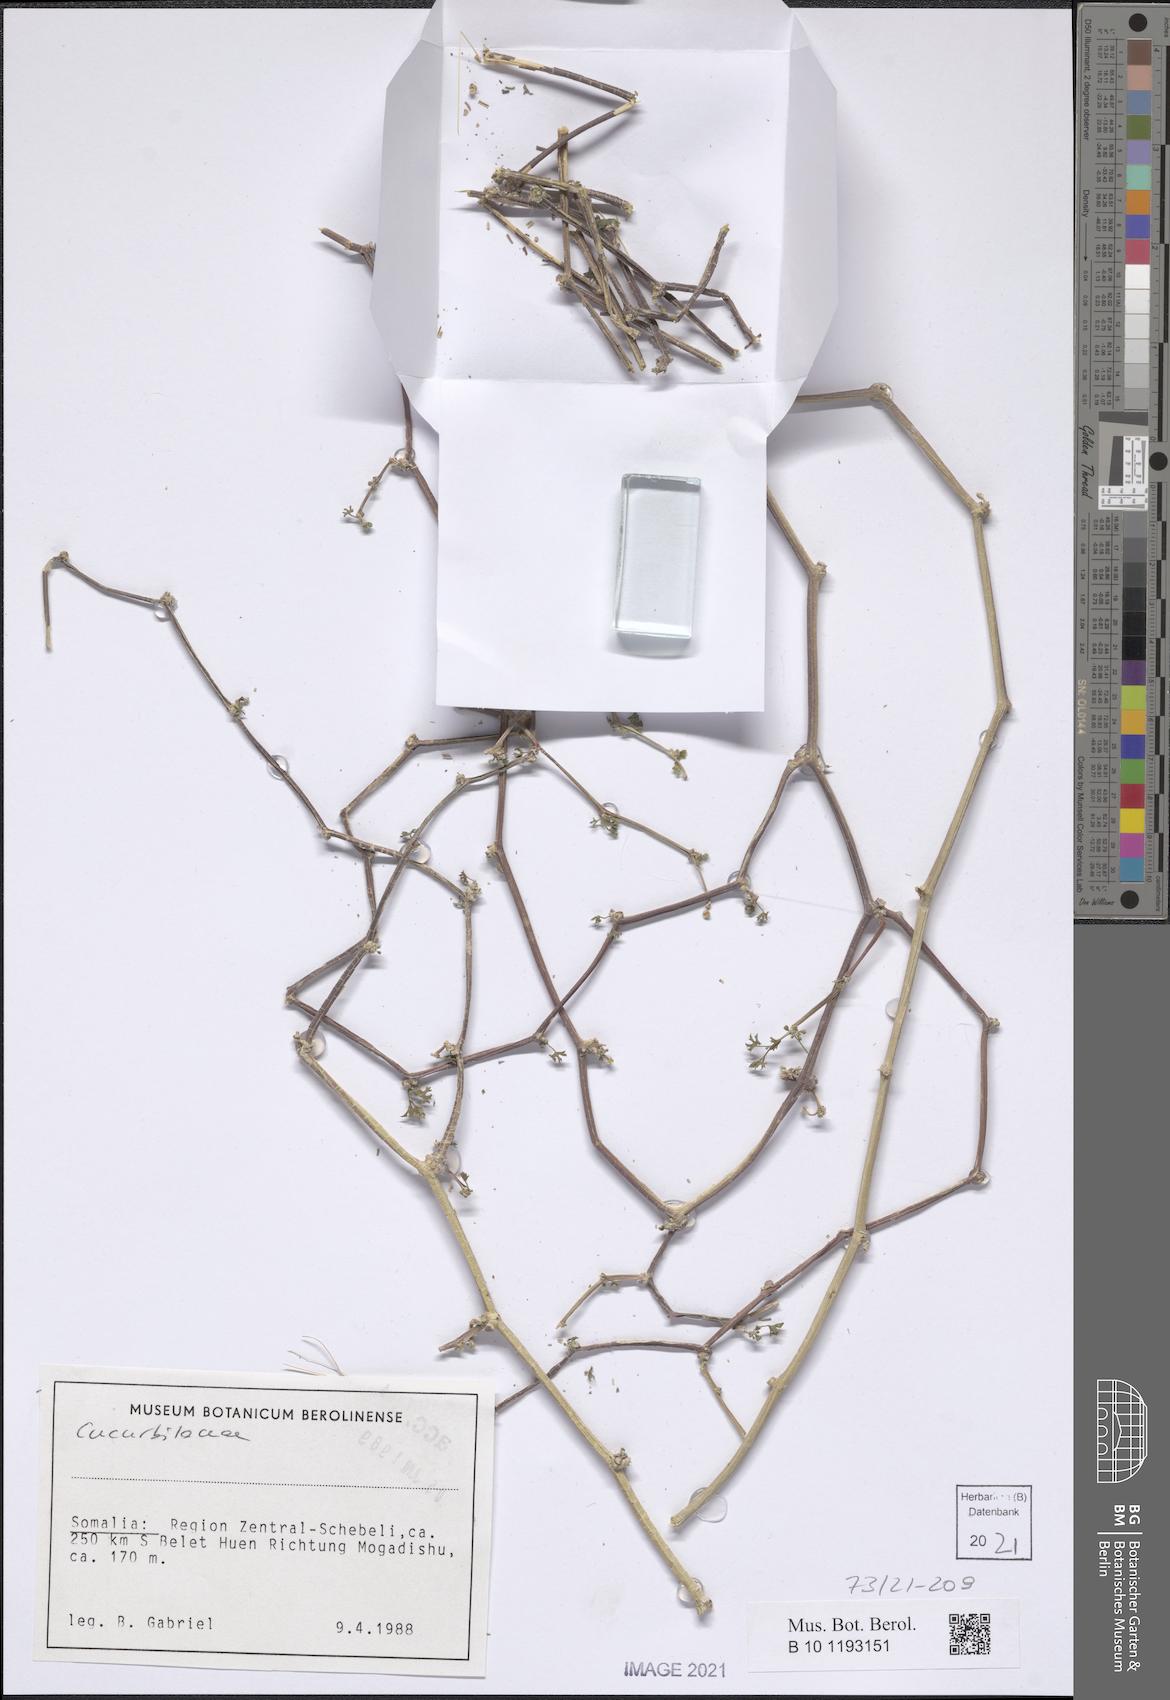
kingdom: Plantae
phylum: Tracheophyta
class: Magnoliopsida
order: Cucurbitales
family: Cucurbitaceae
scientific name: Cucurbitaceae
